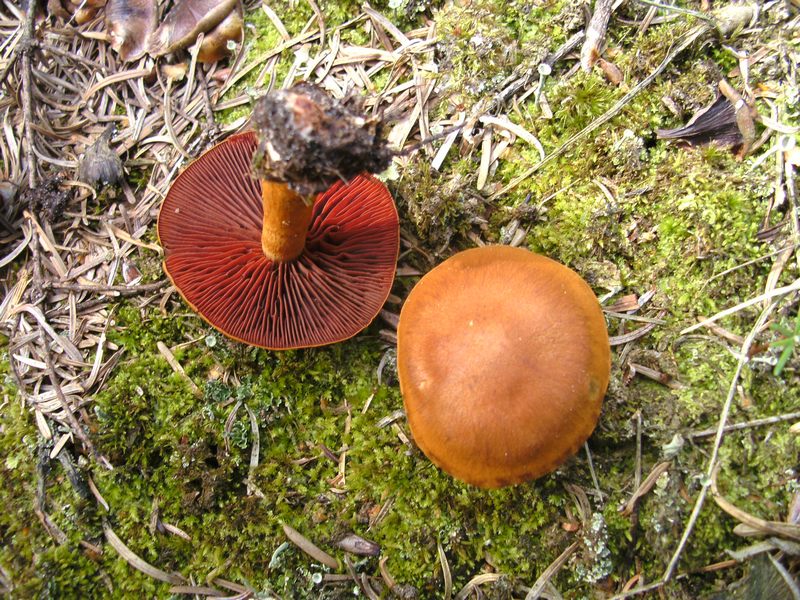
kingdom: Fungi
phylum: Basidiomycota
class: Agaricomycetes
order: Agaricales
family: Cortinariaceae
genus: Cortinarius
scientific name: Cortinarius
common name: cinnoberbladet slørhat
